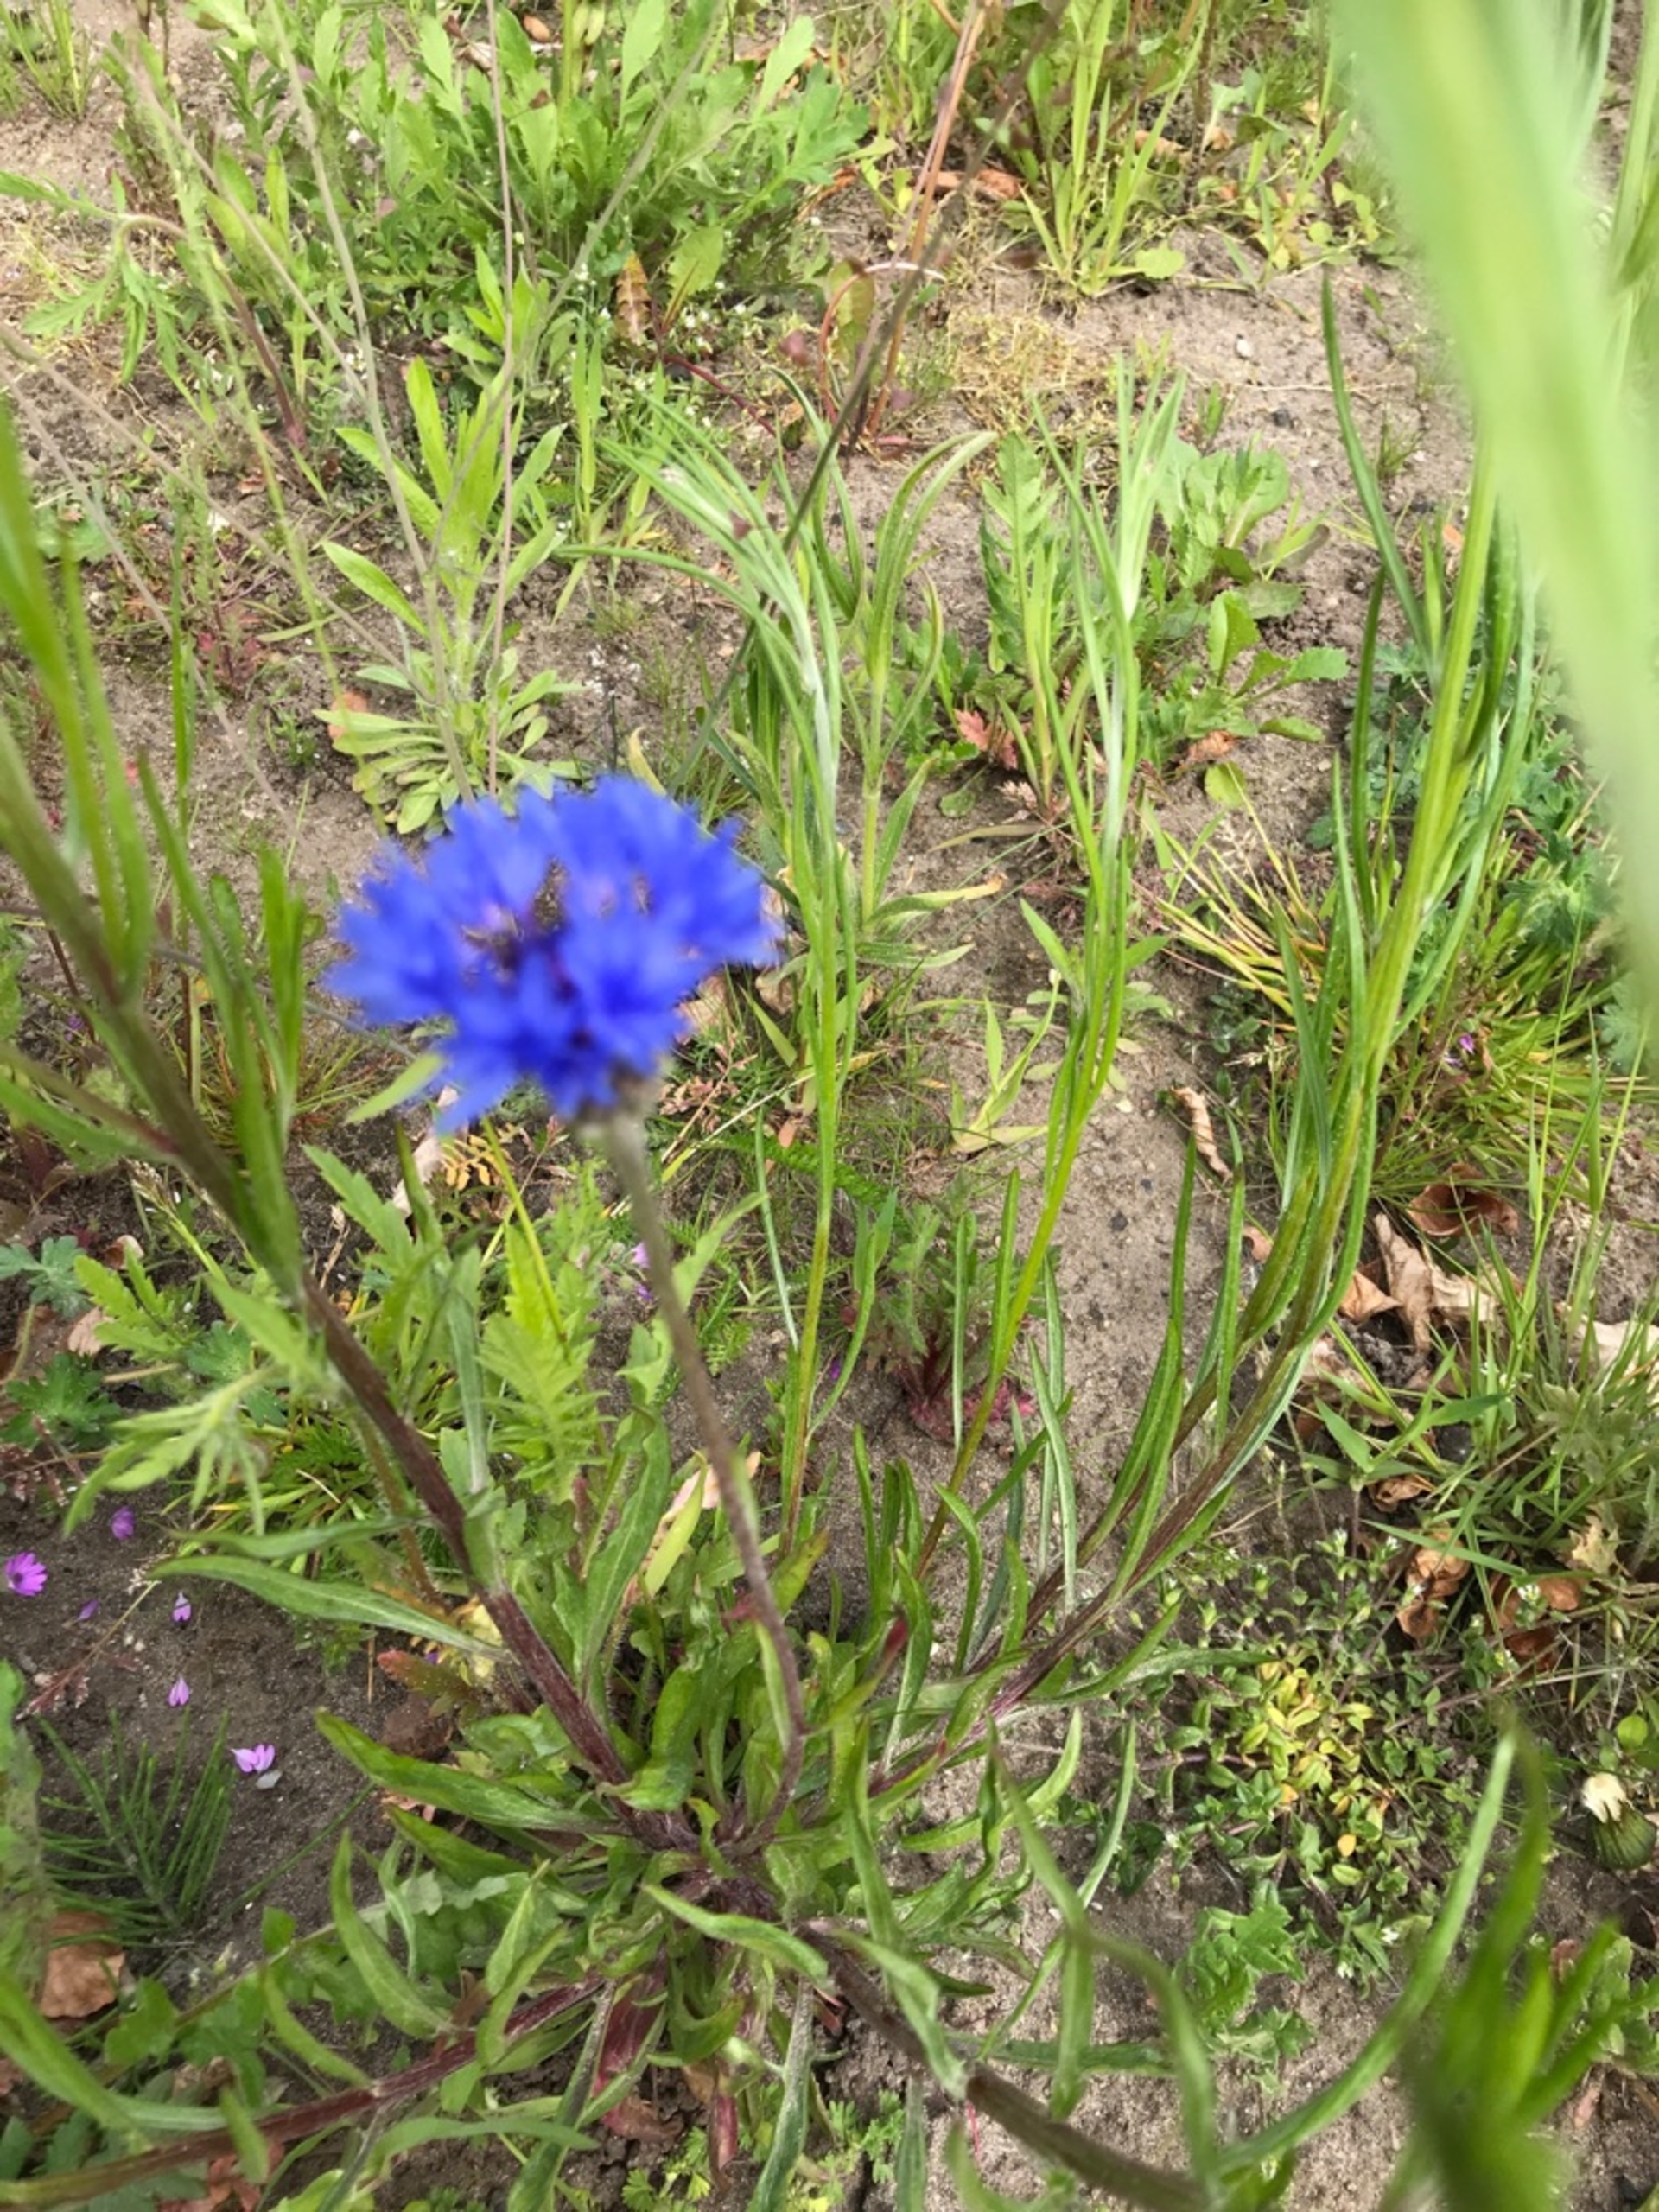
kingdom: Plantae
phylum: Tracheophyta
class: Magnoliopsida
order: Asterales
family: Asteraceae
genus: Centaurea
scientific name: Centaurea cyanus
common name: Kornblomst
